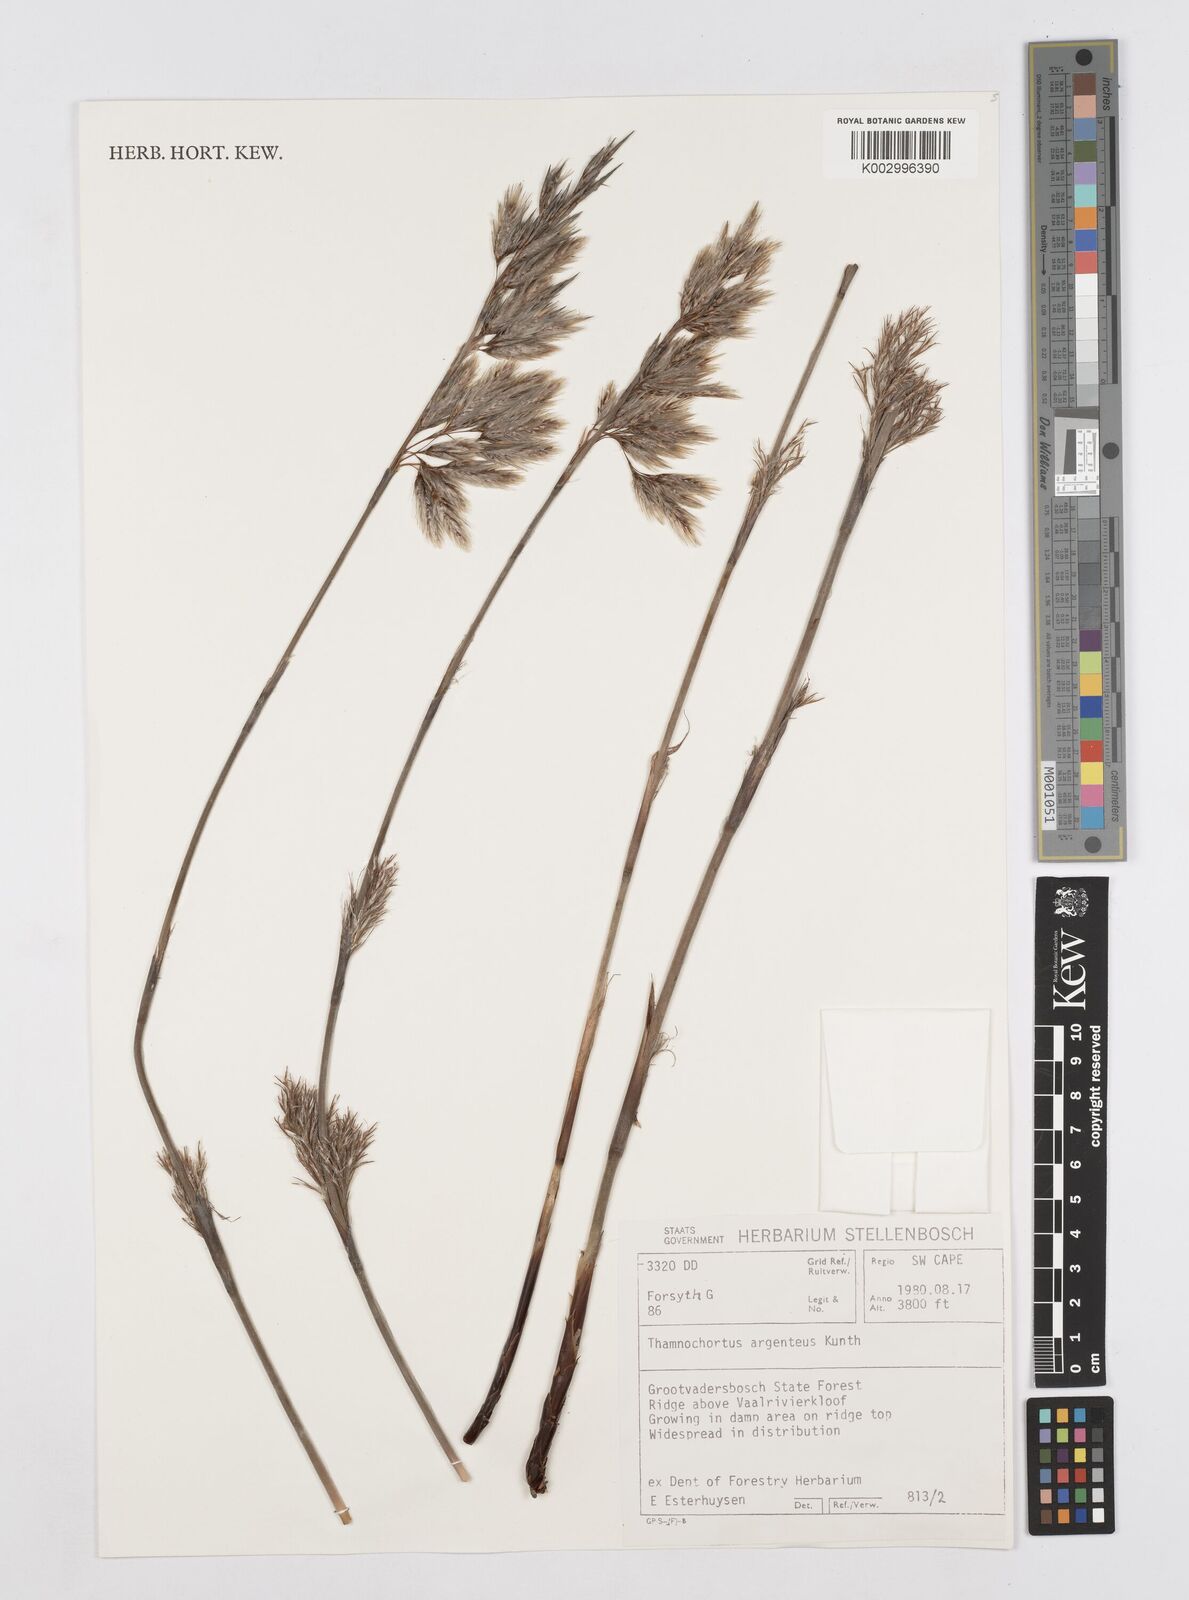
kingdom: Plantae
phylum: Tracheophyta
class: Liliopsida
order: Poales
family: Restionaceae
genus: Hypodiscus
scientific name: Hypodiscus argenteus
